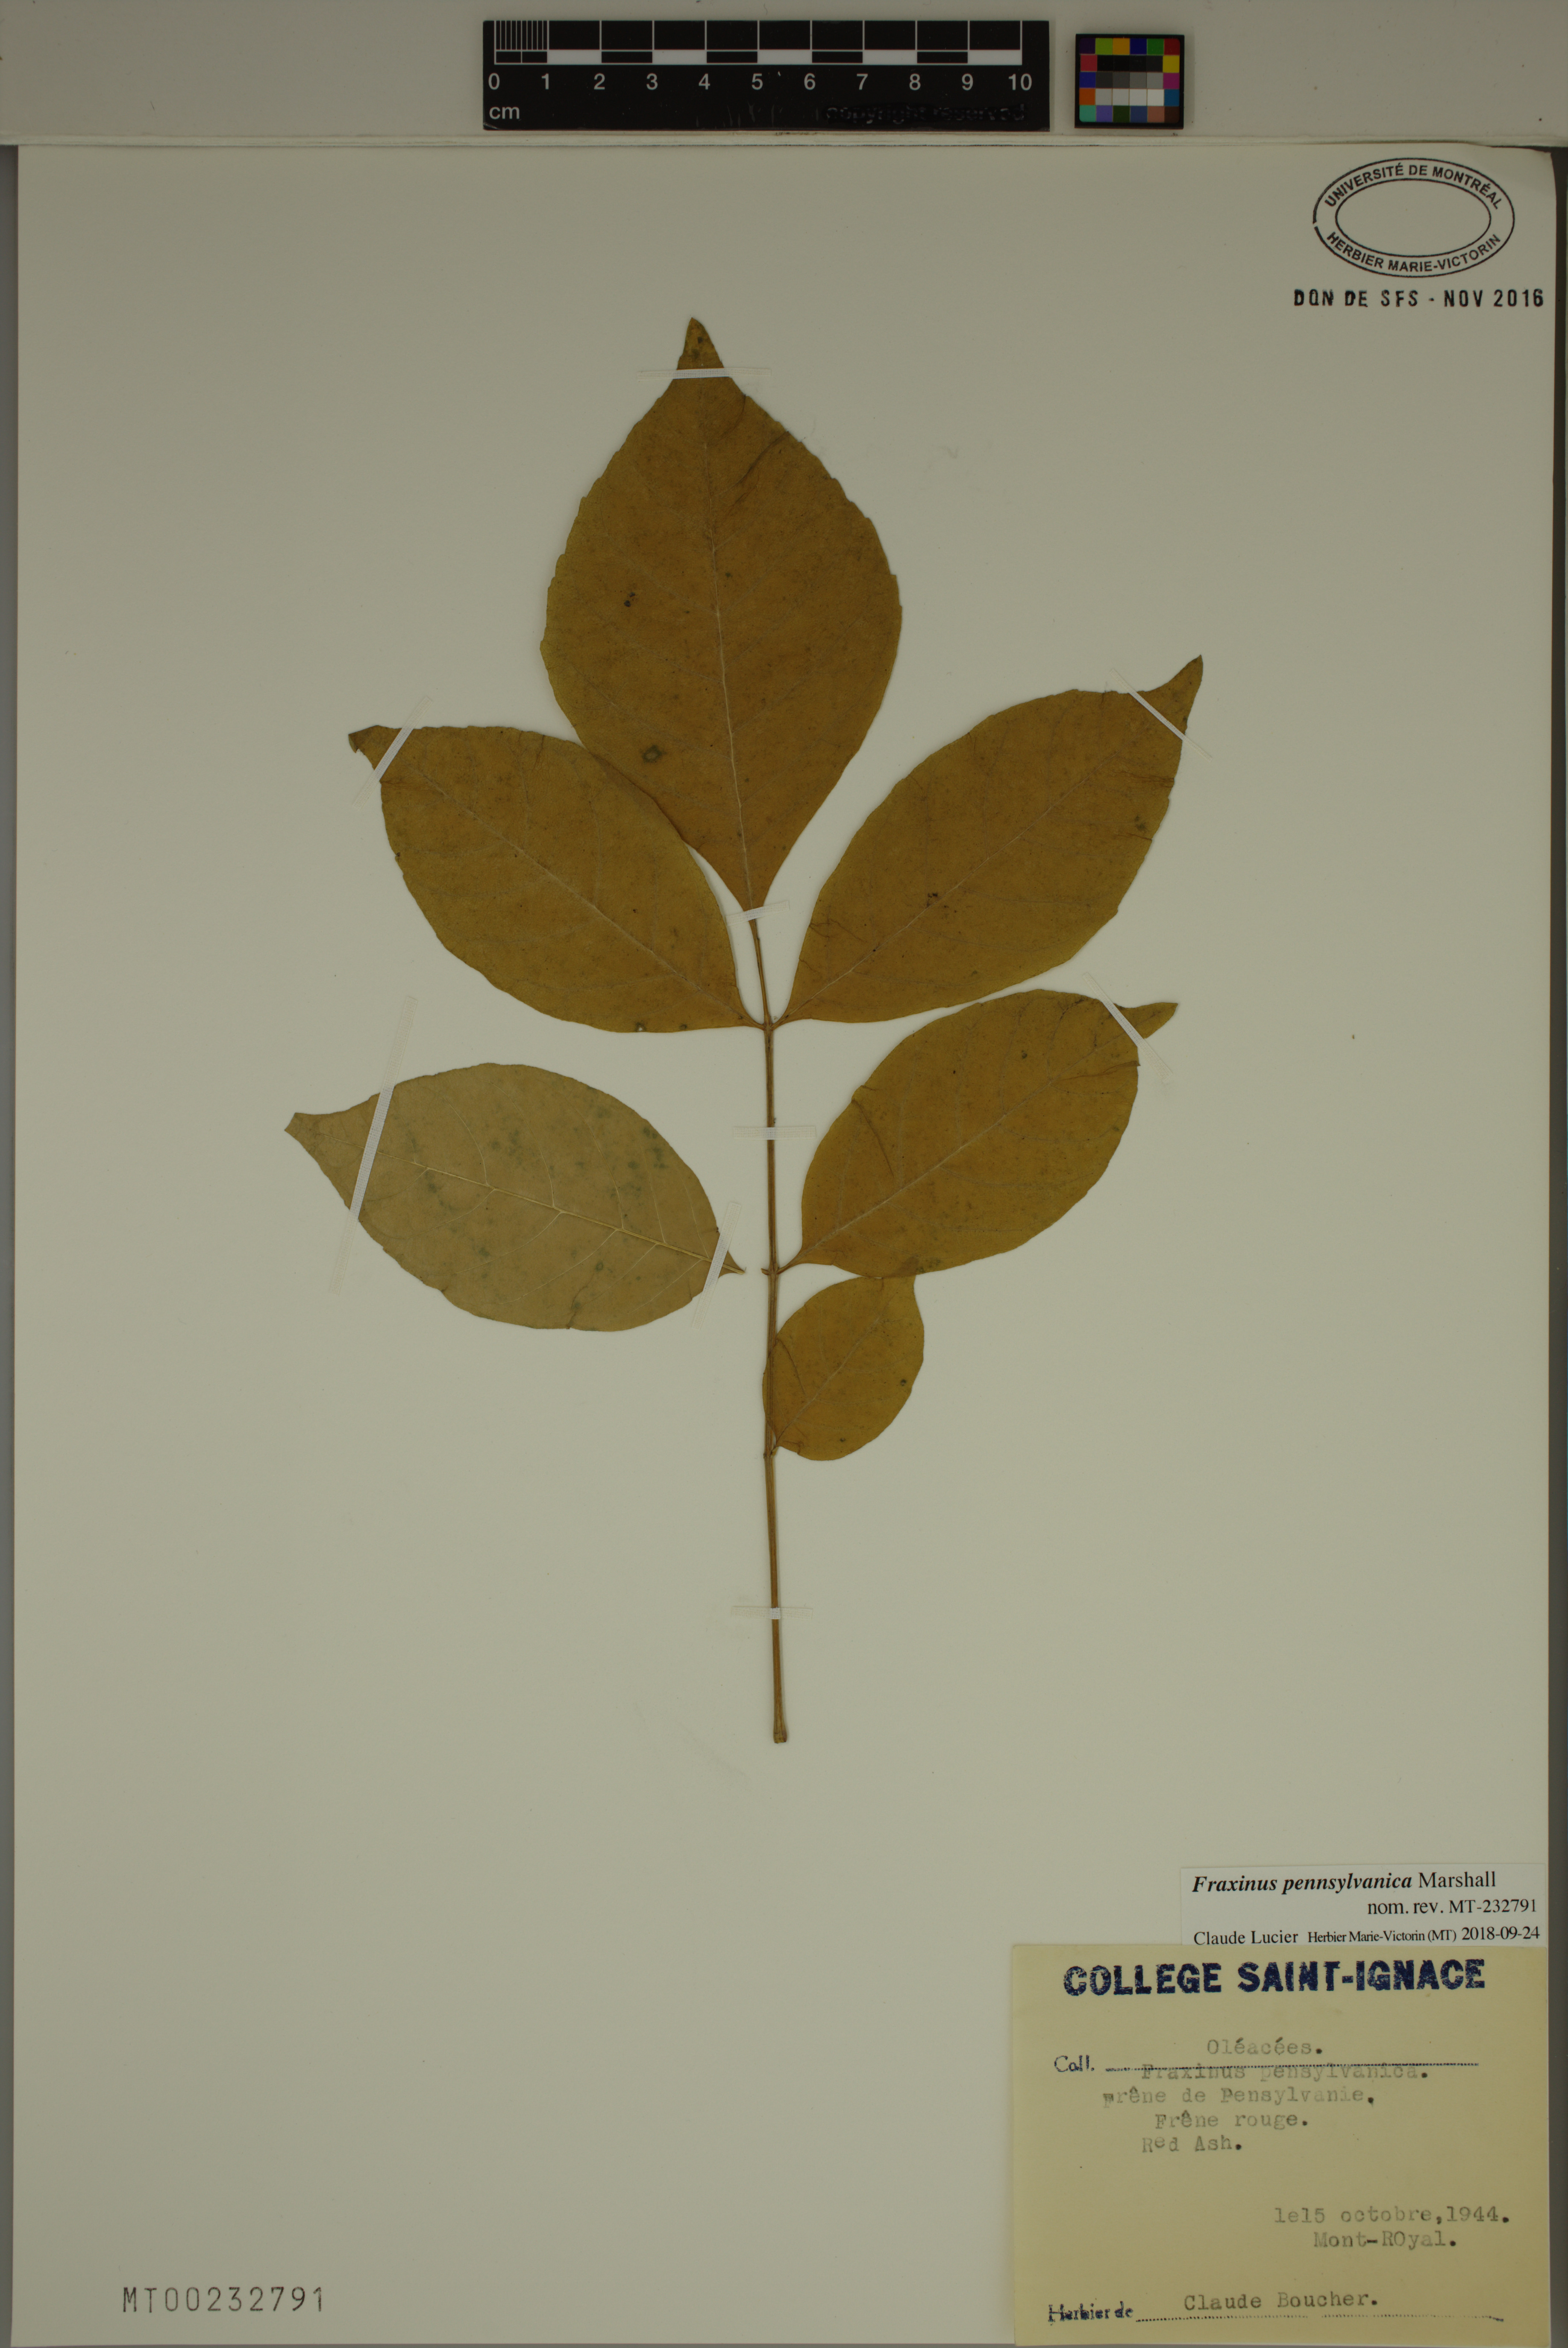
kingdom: Plantae
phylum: Tracheophyta
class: Magnoliopsida
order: Lamiales
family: Oleaceae
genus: Fraxinus
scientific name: Fraxinus pennsylvanica
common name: Green ash
